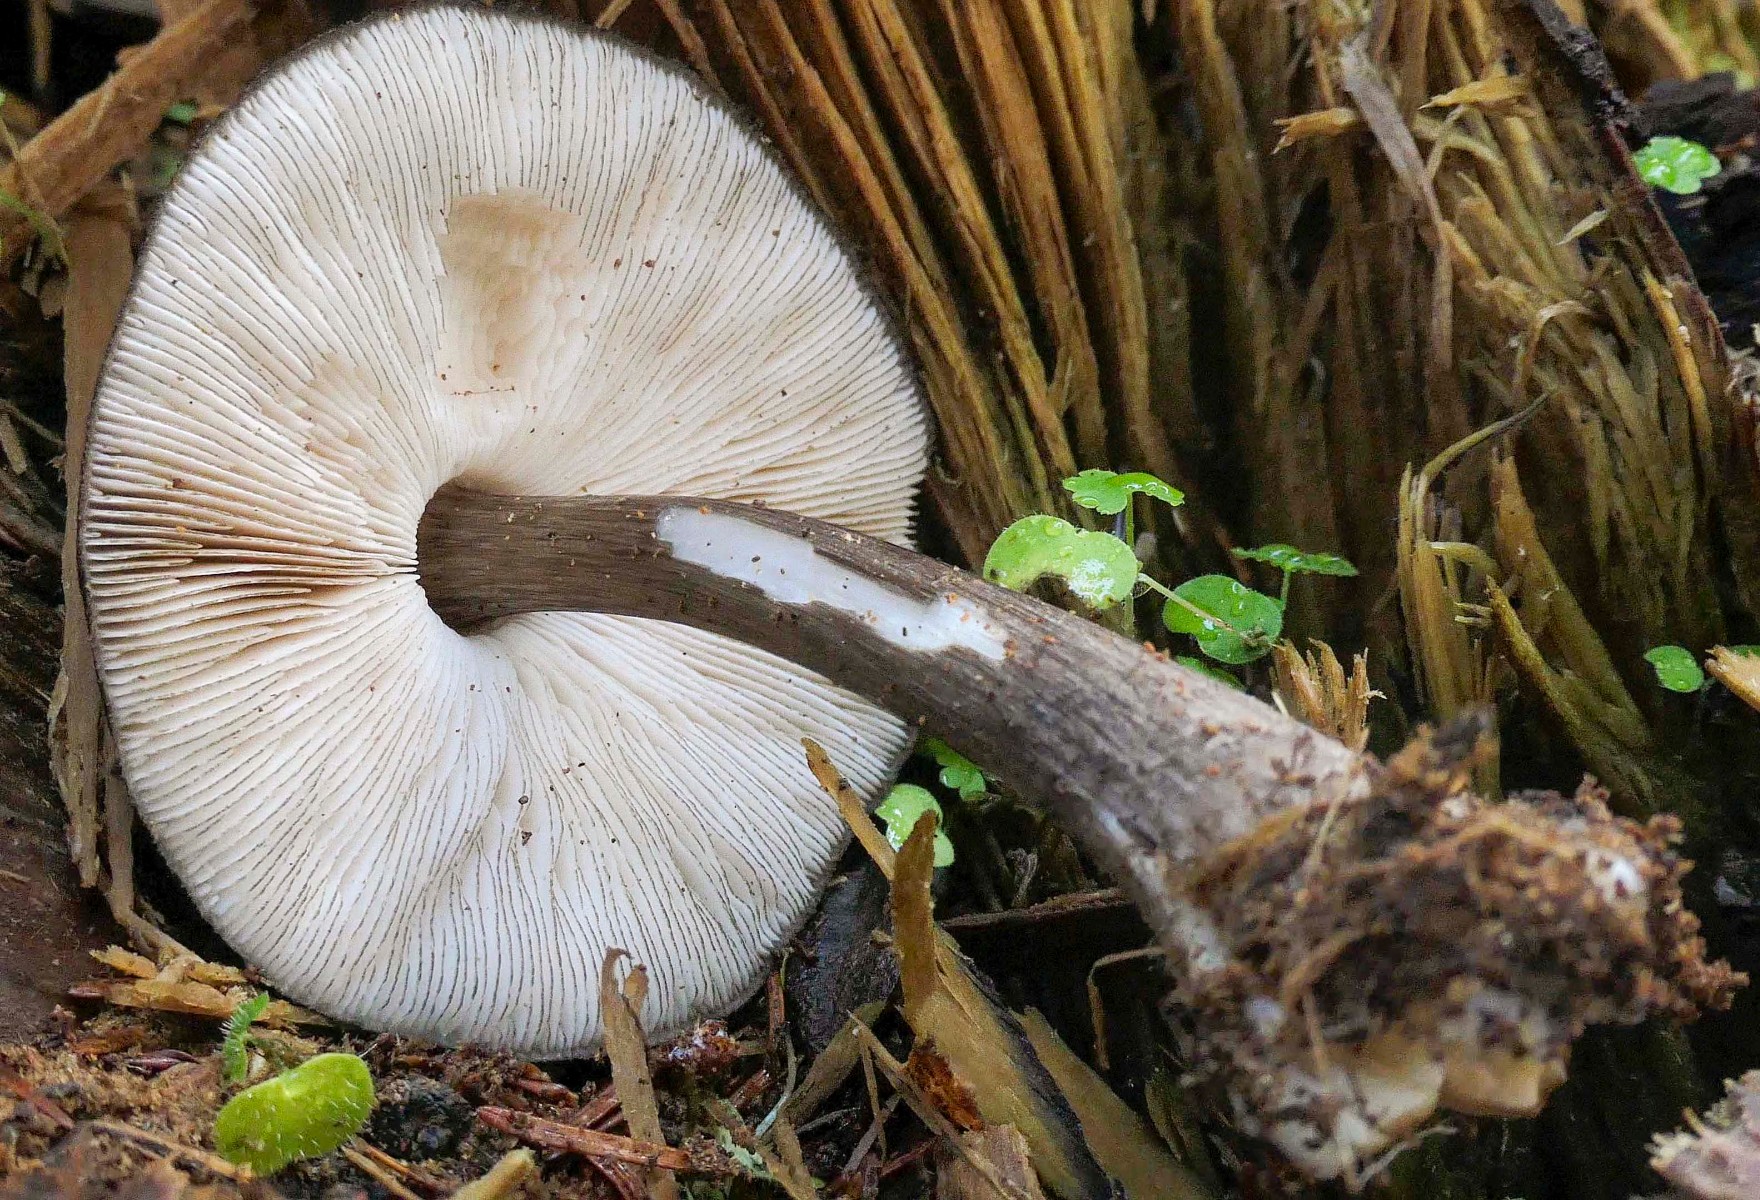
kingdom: Fungi
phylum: Basidiomycota
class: Agaricomycetes
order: Agaricales
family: Pluteaceae
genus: Pluteus
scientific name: Pluteus atromarginatus
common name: sortrandet skærmhat
